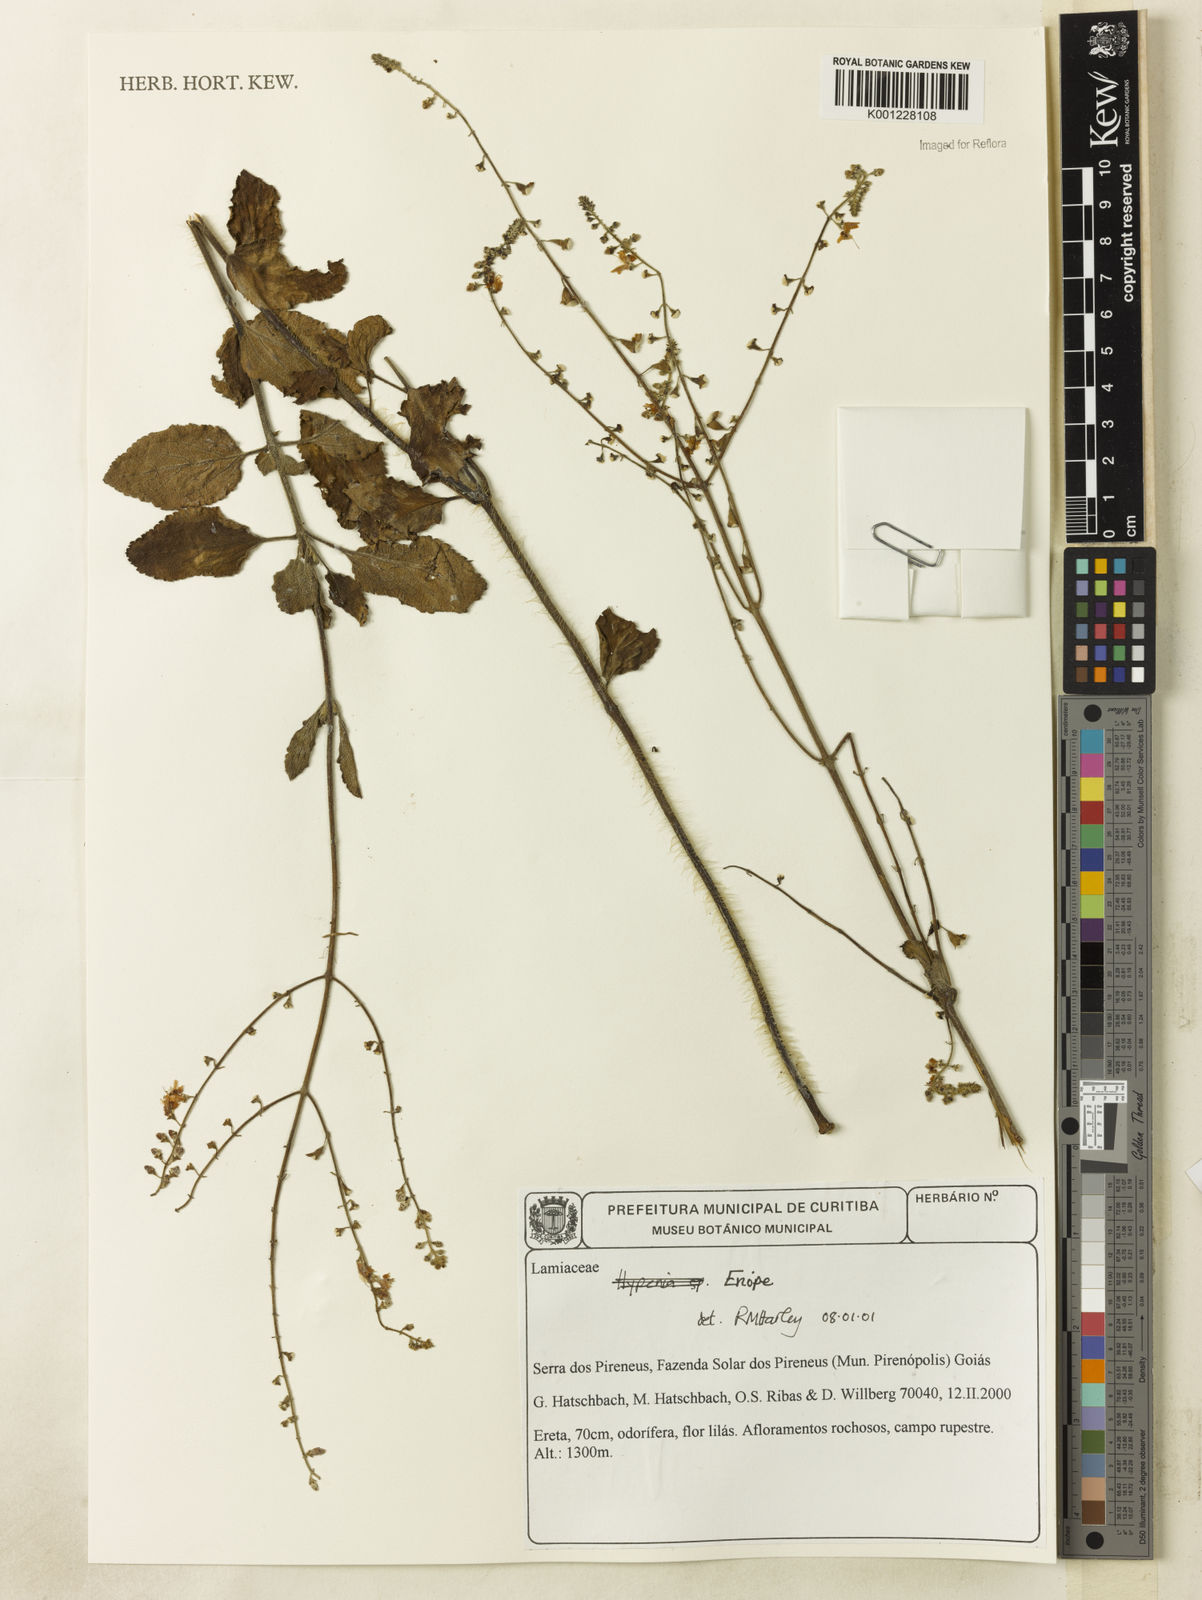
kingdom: Plantae
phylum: Tracheophyta
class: Magnoliopsida
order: Lamiales
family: Lamiaceae
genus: Eriope
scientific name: Eriope
